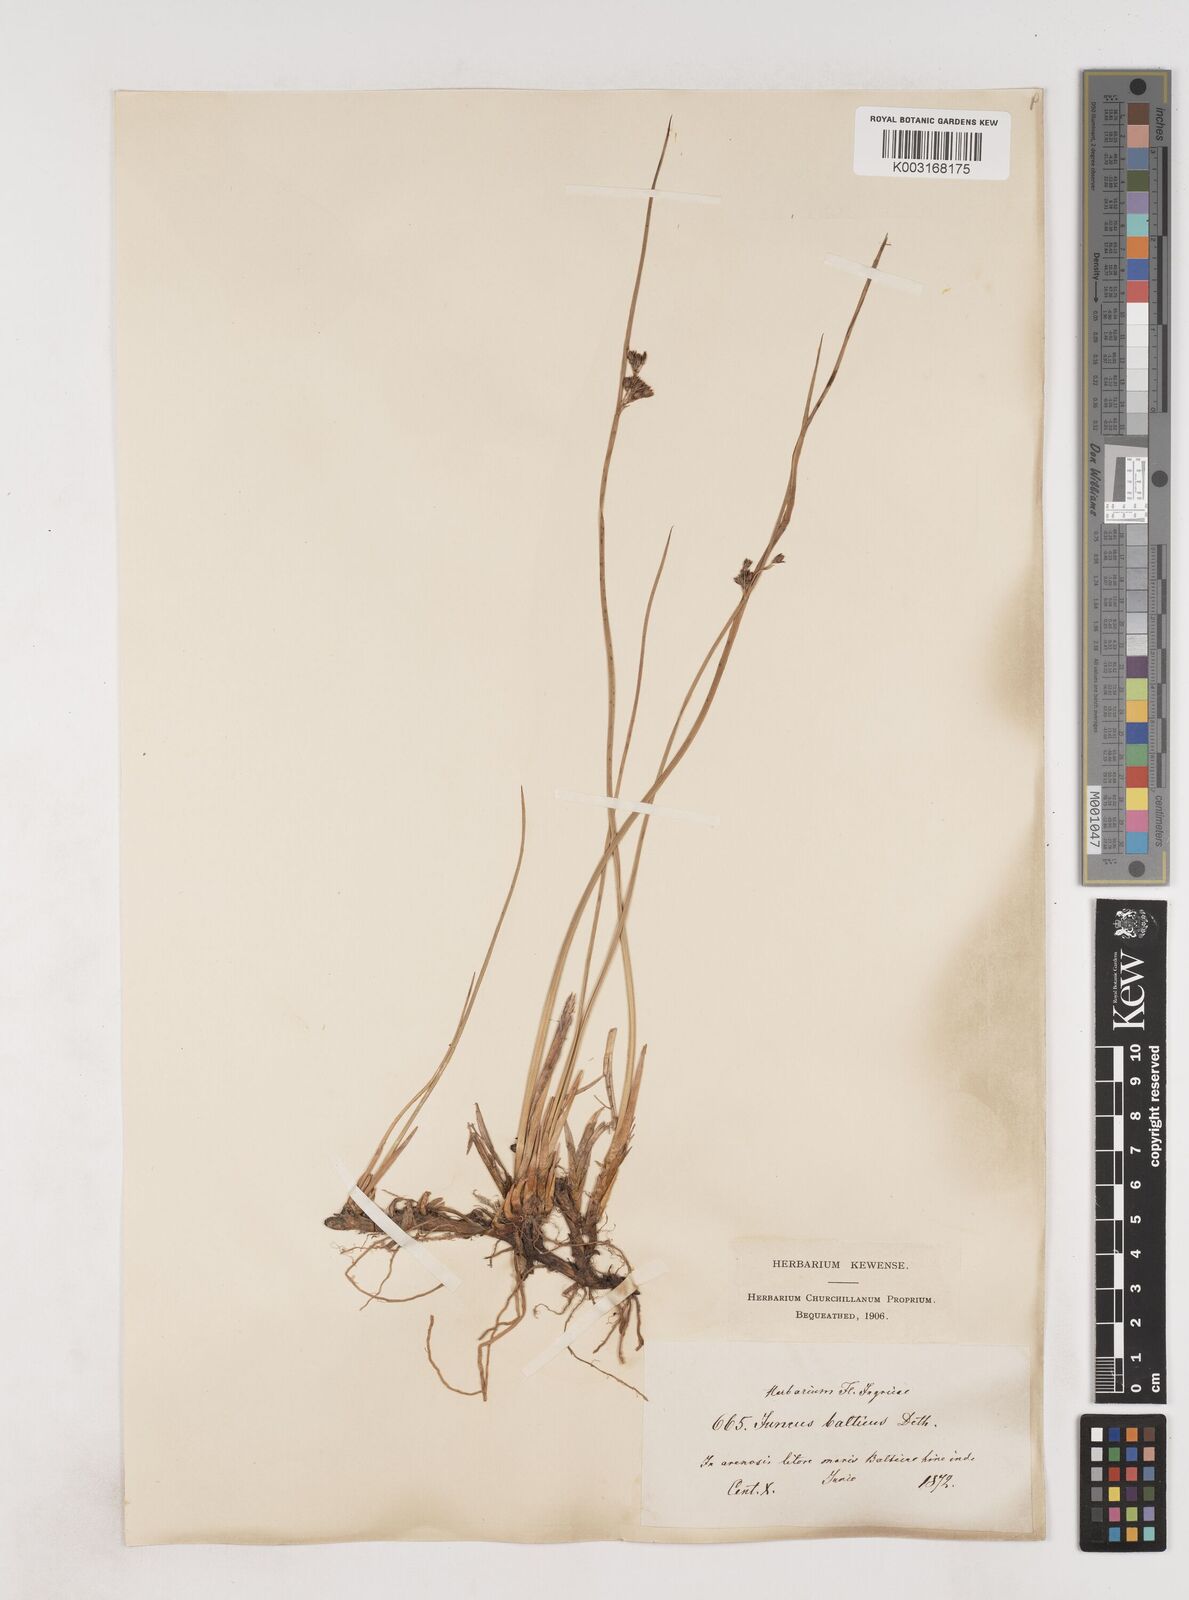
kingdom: Plantae
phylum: Tracheophyta
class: Liliopsida
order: Poales
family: Juncaceae
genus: Juncus
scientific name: Juncus balticus
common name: Baltic rush
